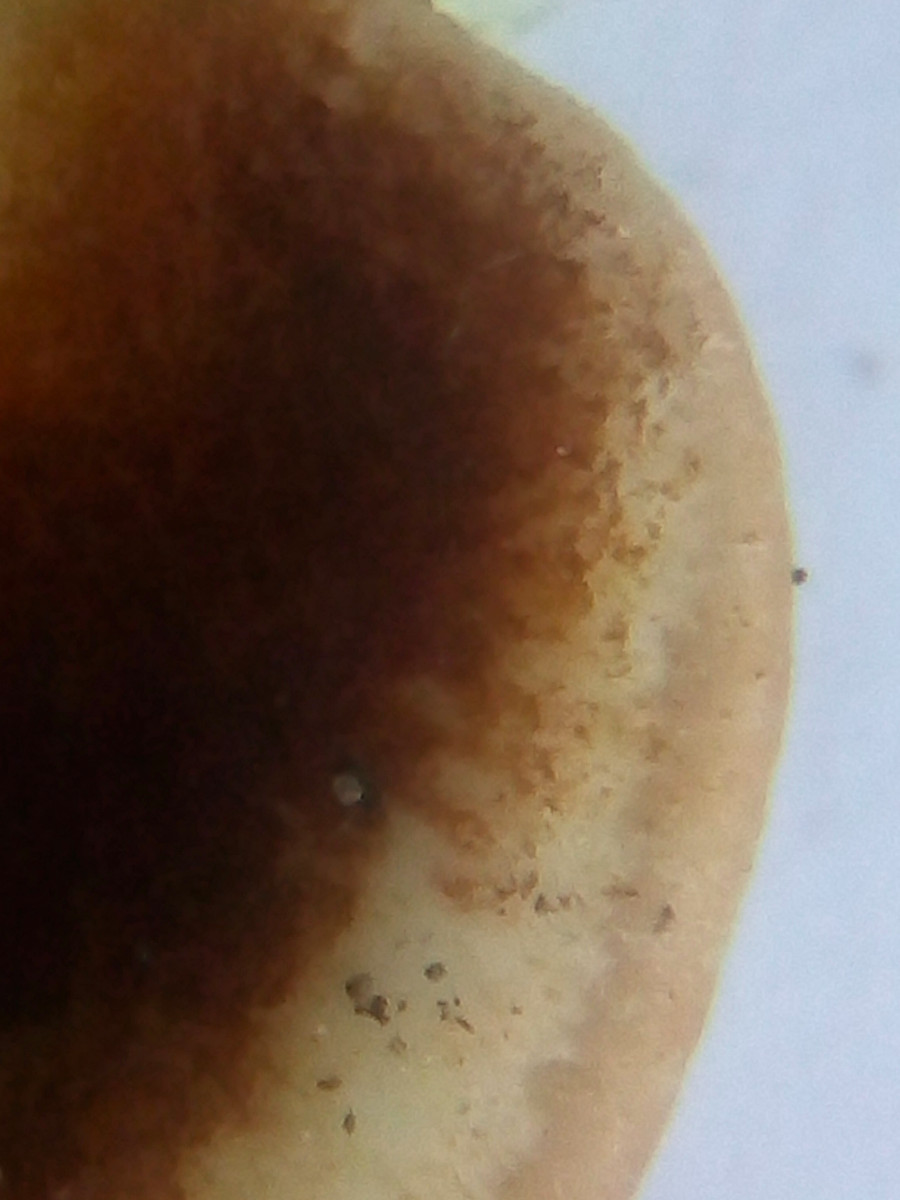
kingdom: Fungi
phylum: Basidiomycota
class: Agaricomycetes
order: Agaricales
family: Crepidotaceae
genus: Crepidotus
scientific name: Crepidotus calolepis
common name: småskællet muslingesvamp
